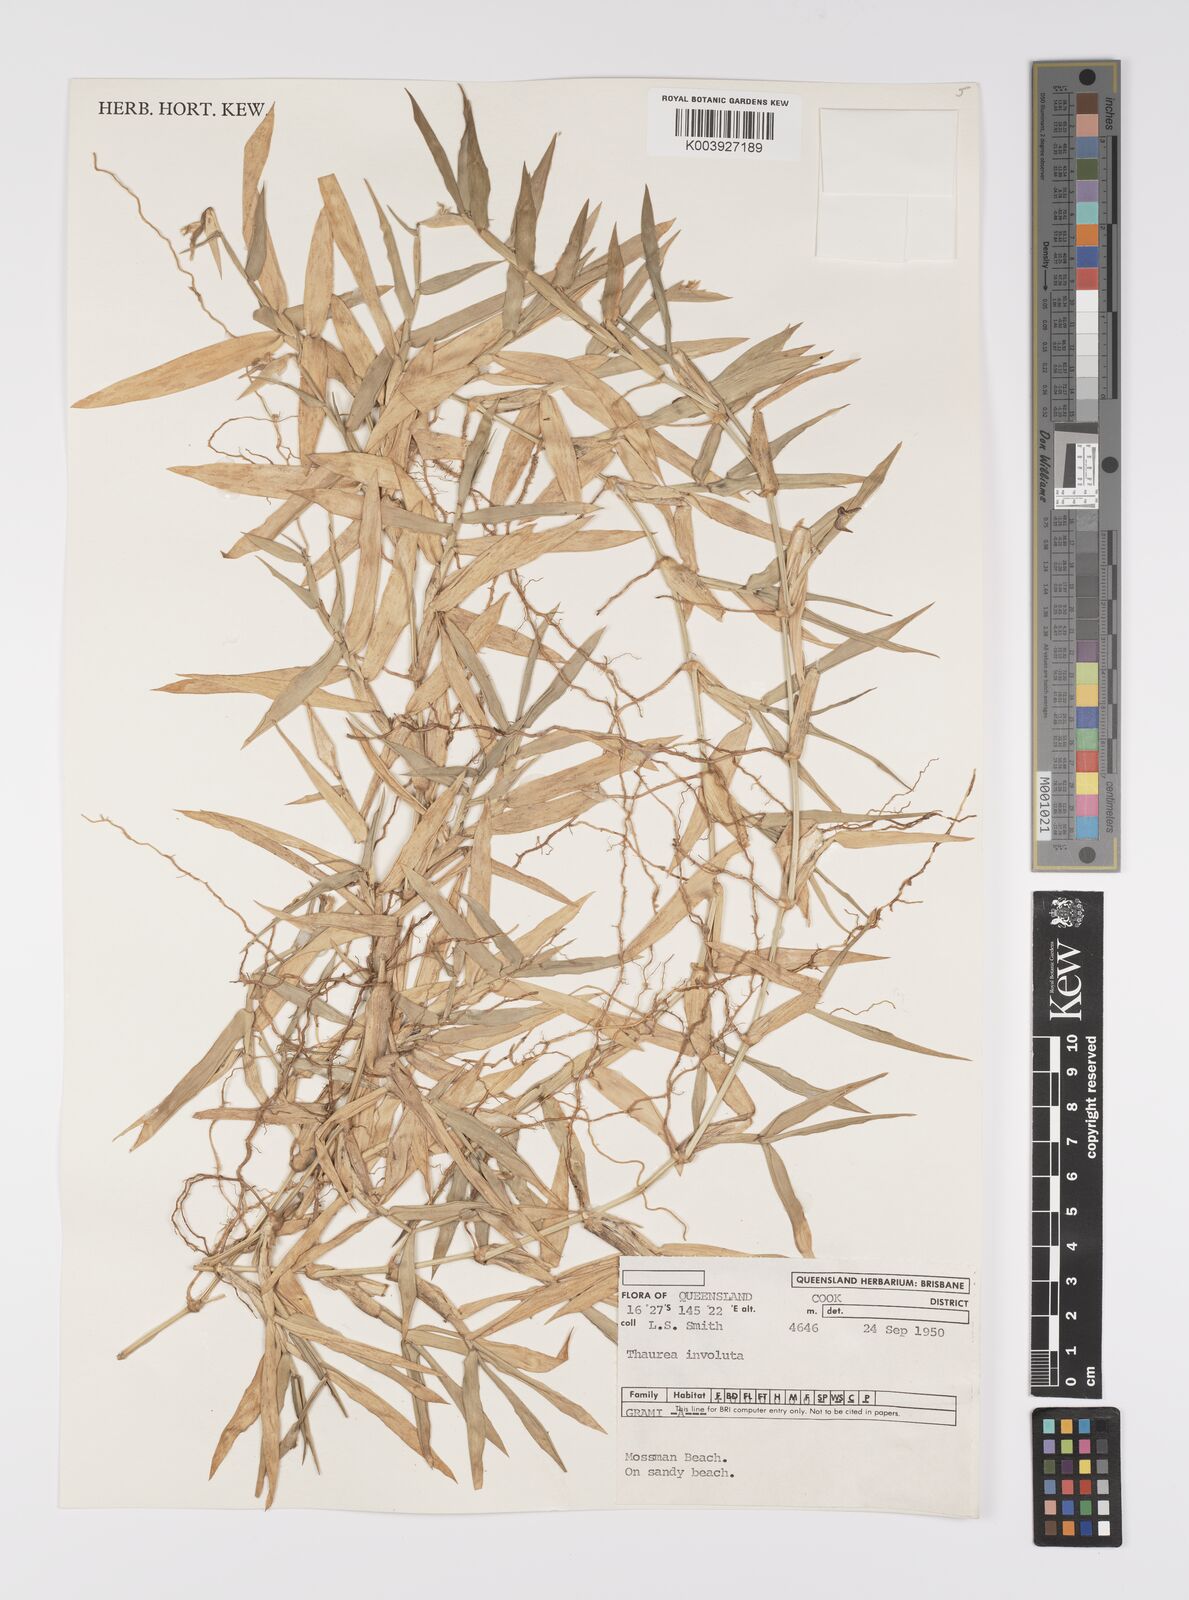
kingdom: Plantae
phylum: Tracheophyta
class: Liliopsida
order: Poales
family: Poaceae
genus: Thuarea
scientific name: Thuarea involuta
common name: Tropical beach grass
